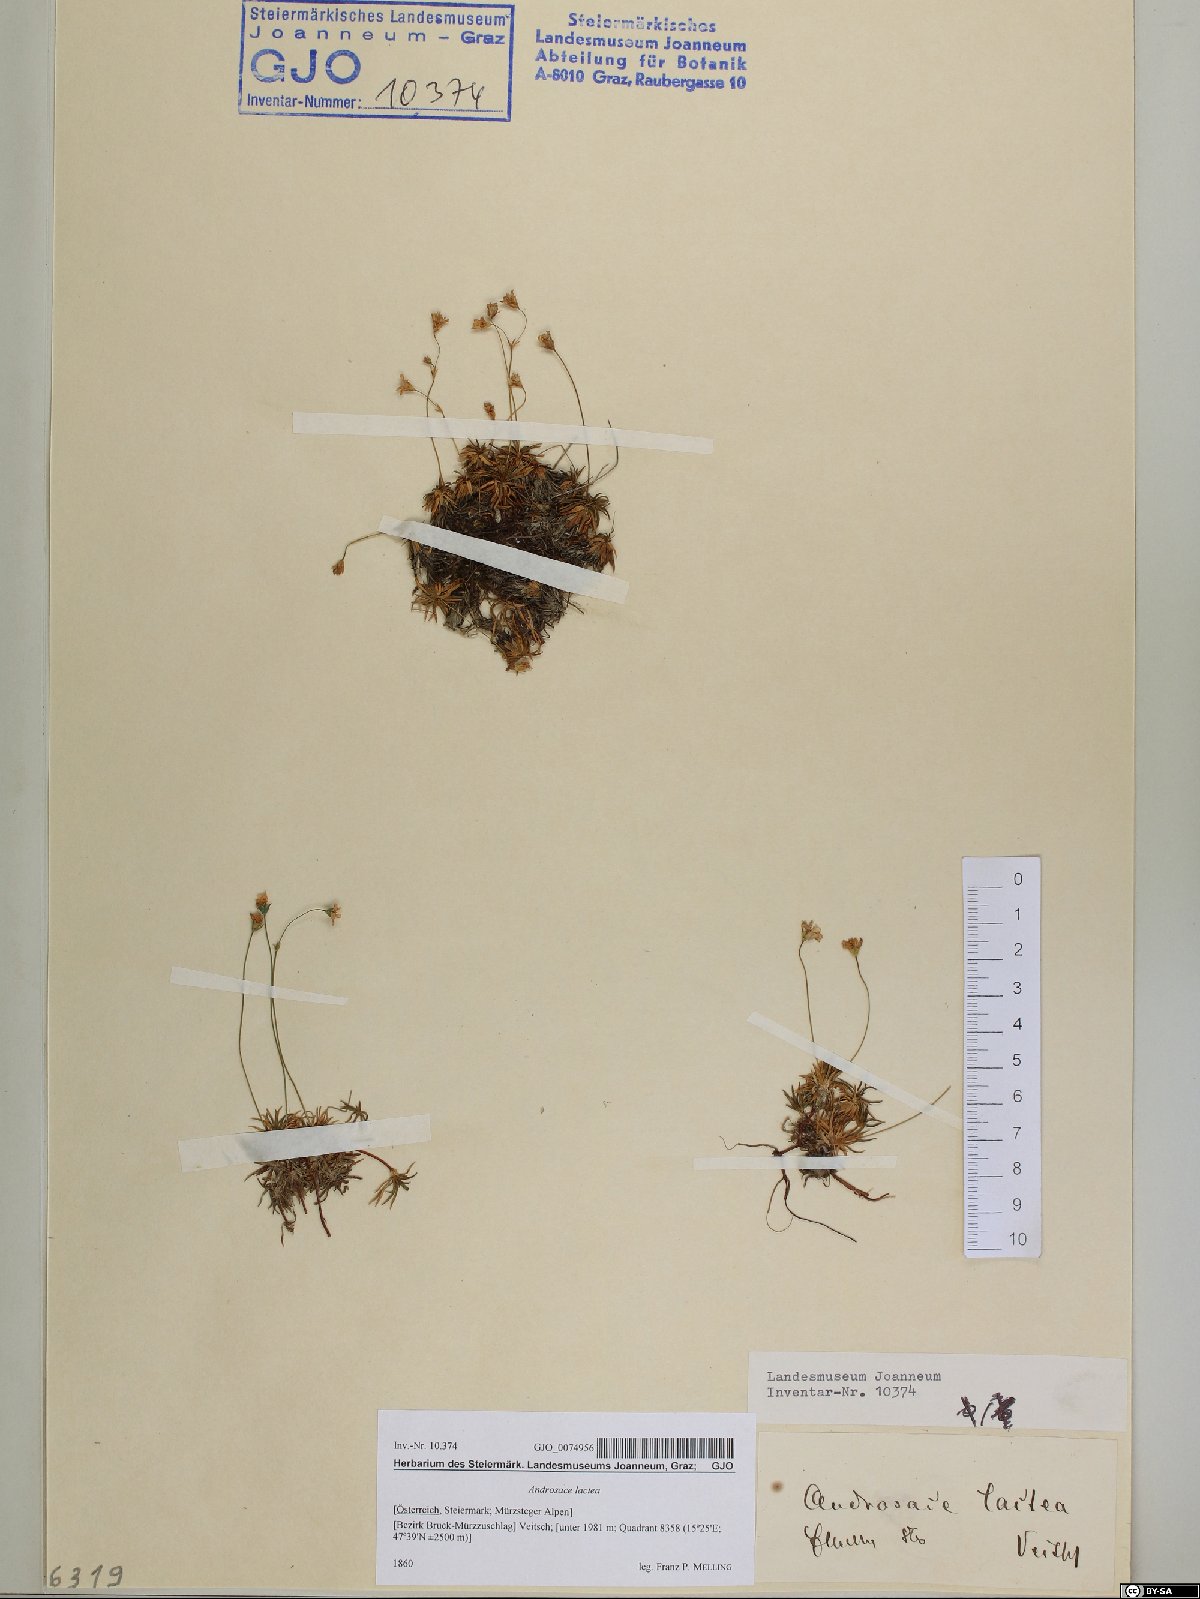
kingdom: Plantae
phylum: Tracheophyta
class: Magnoliopsida
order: Ericales
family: Primulaceae
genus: Androsace
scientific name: Androsace lactea
